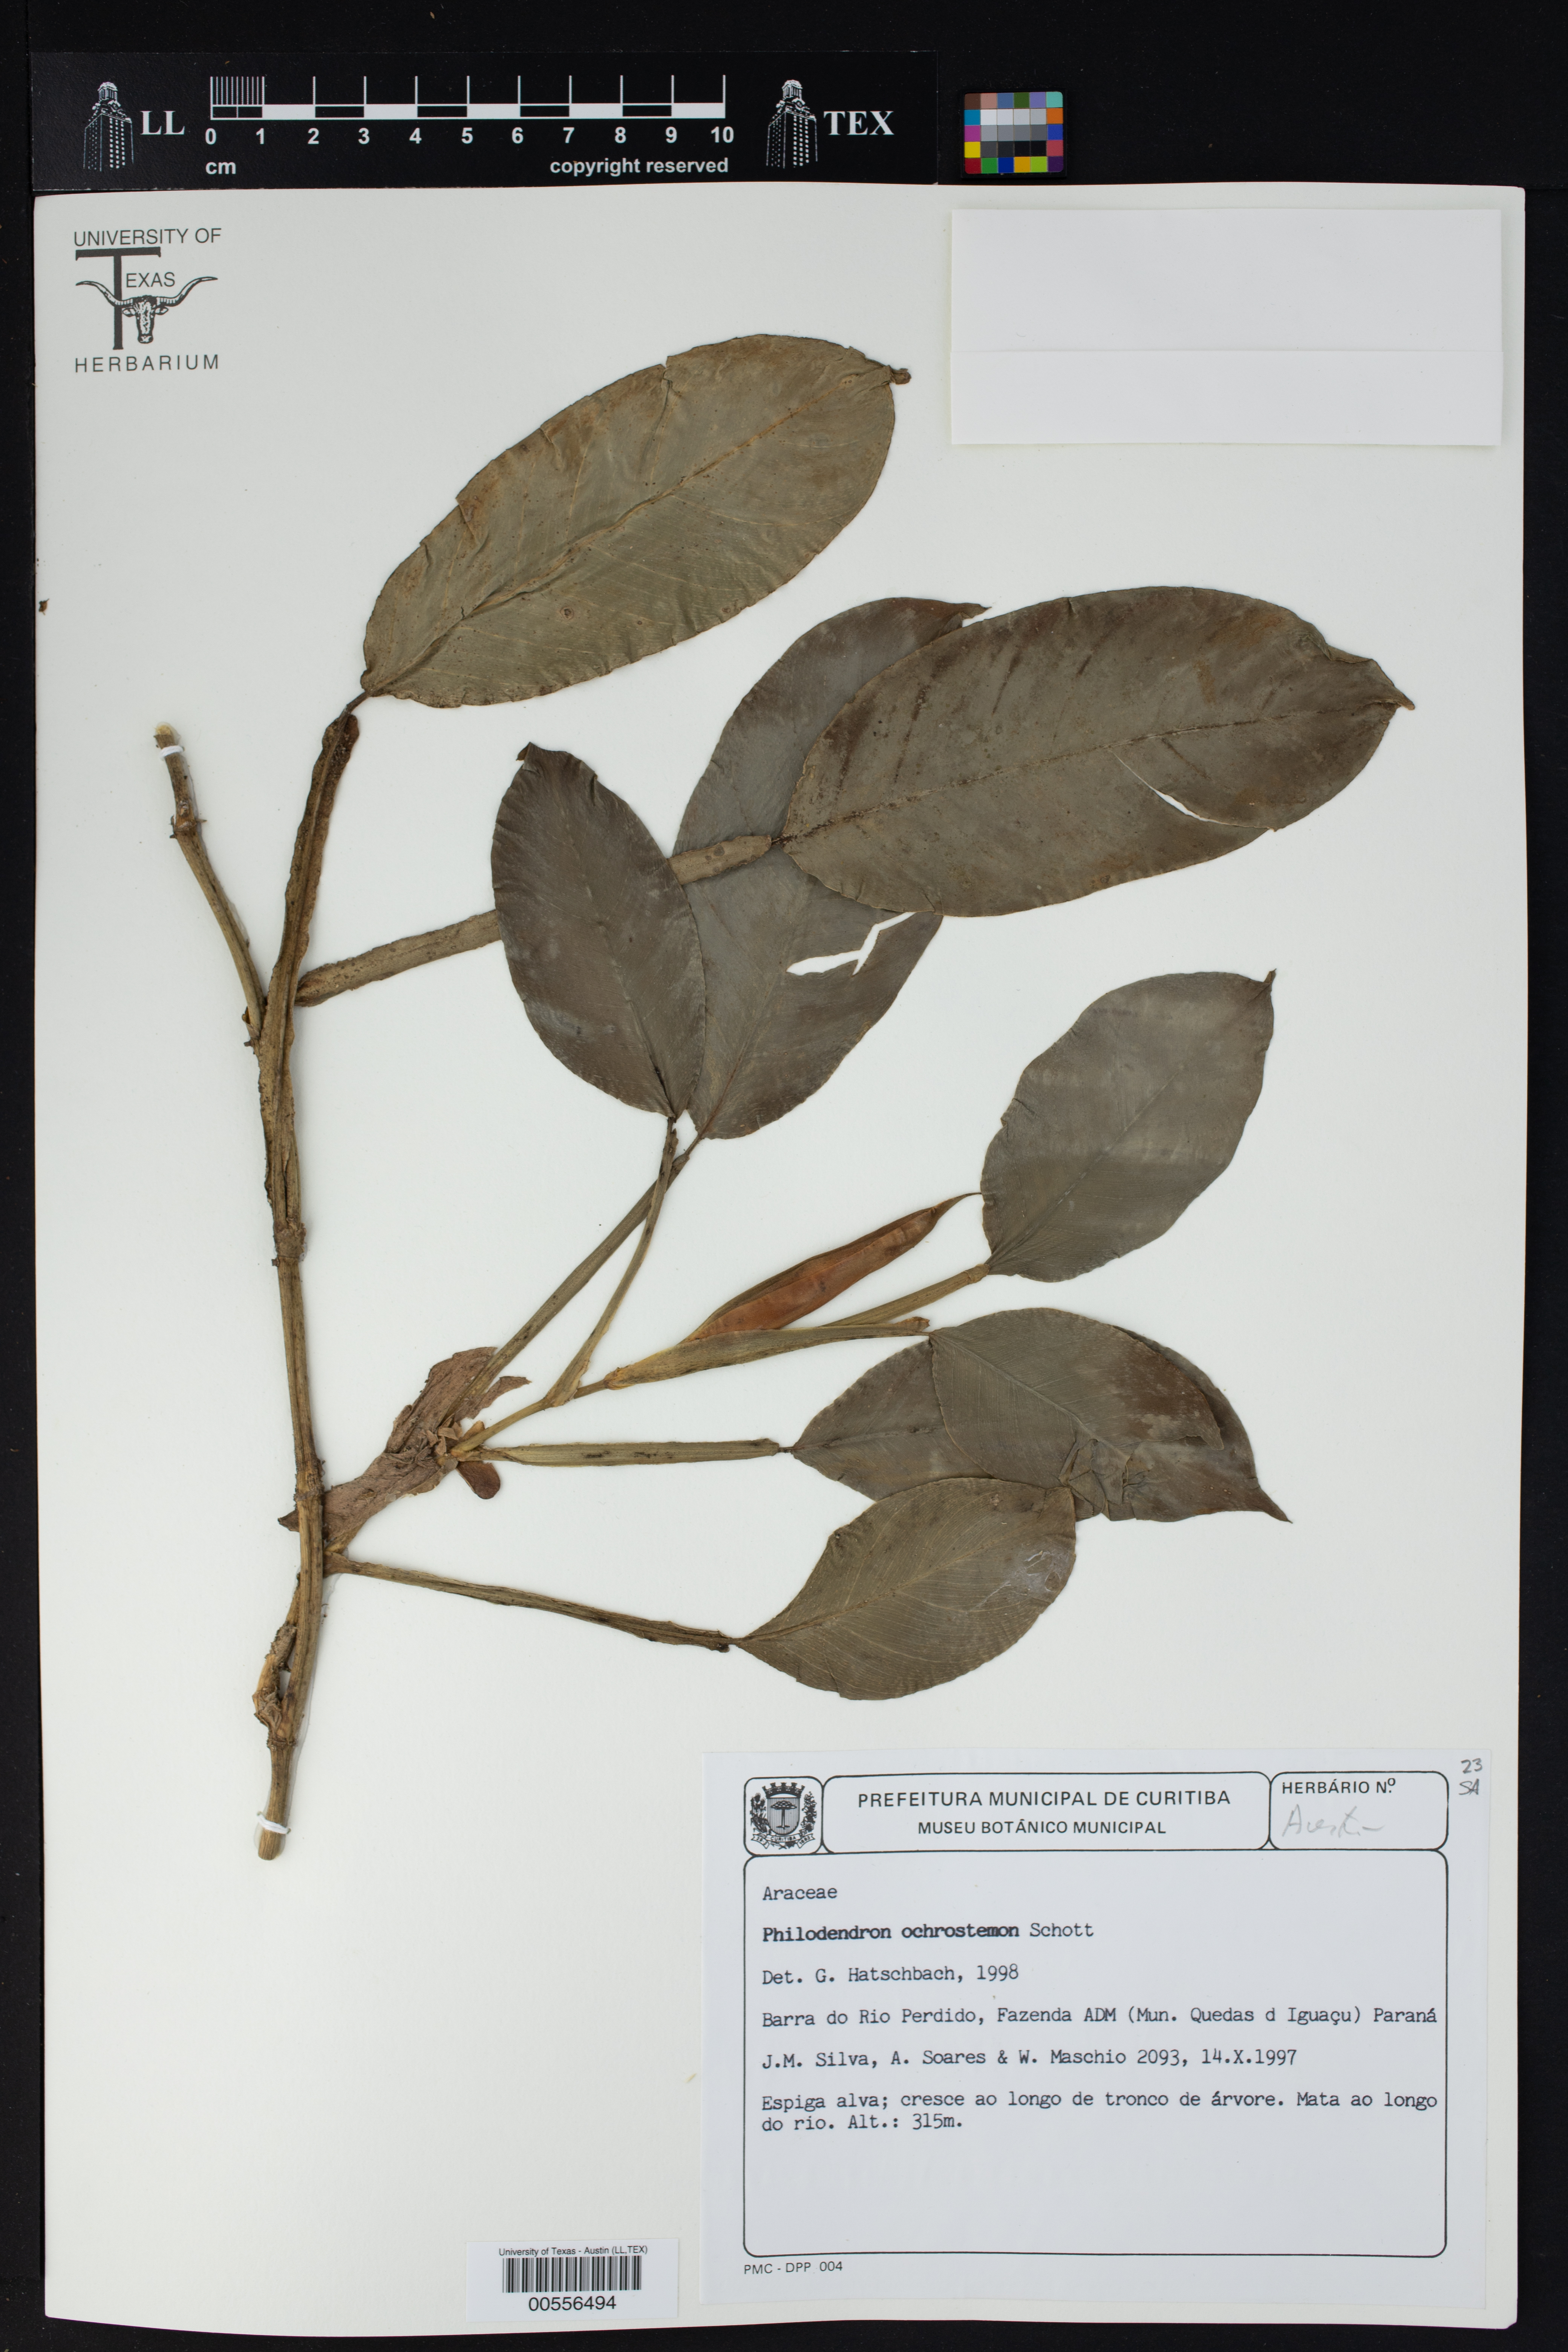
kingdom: Plantae
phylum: Tracheophyta
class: Liliopsida
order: Alismatales
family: Araceae
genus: Philodendron
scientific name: Philodendron ochrostemon
